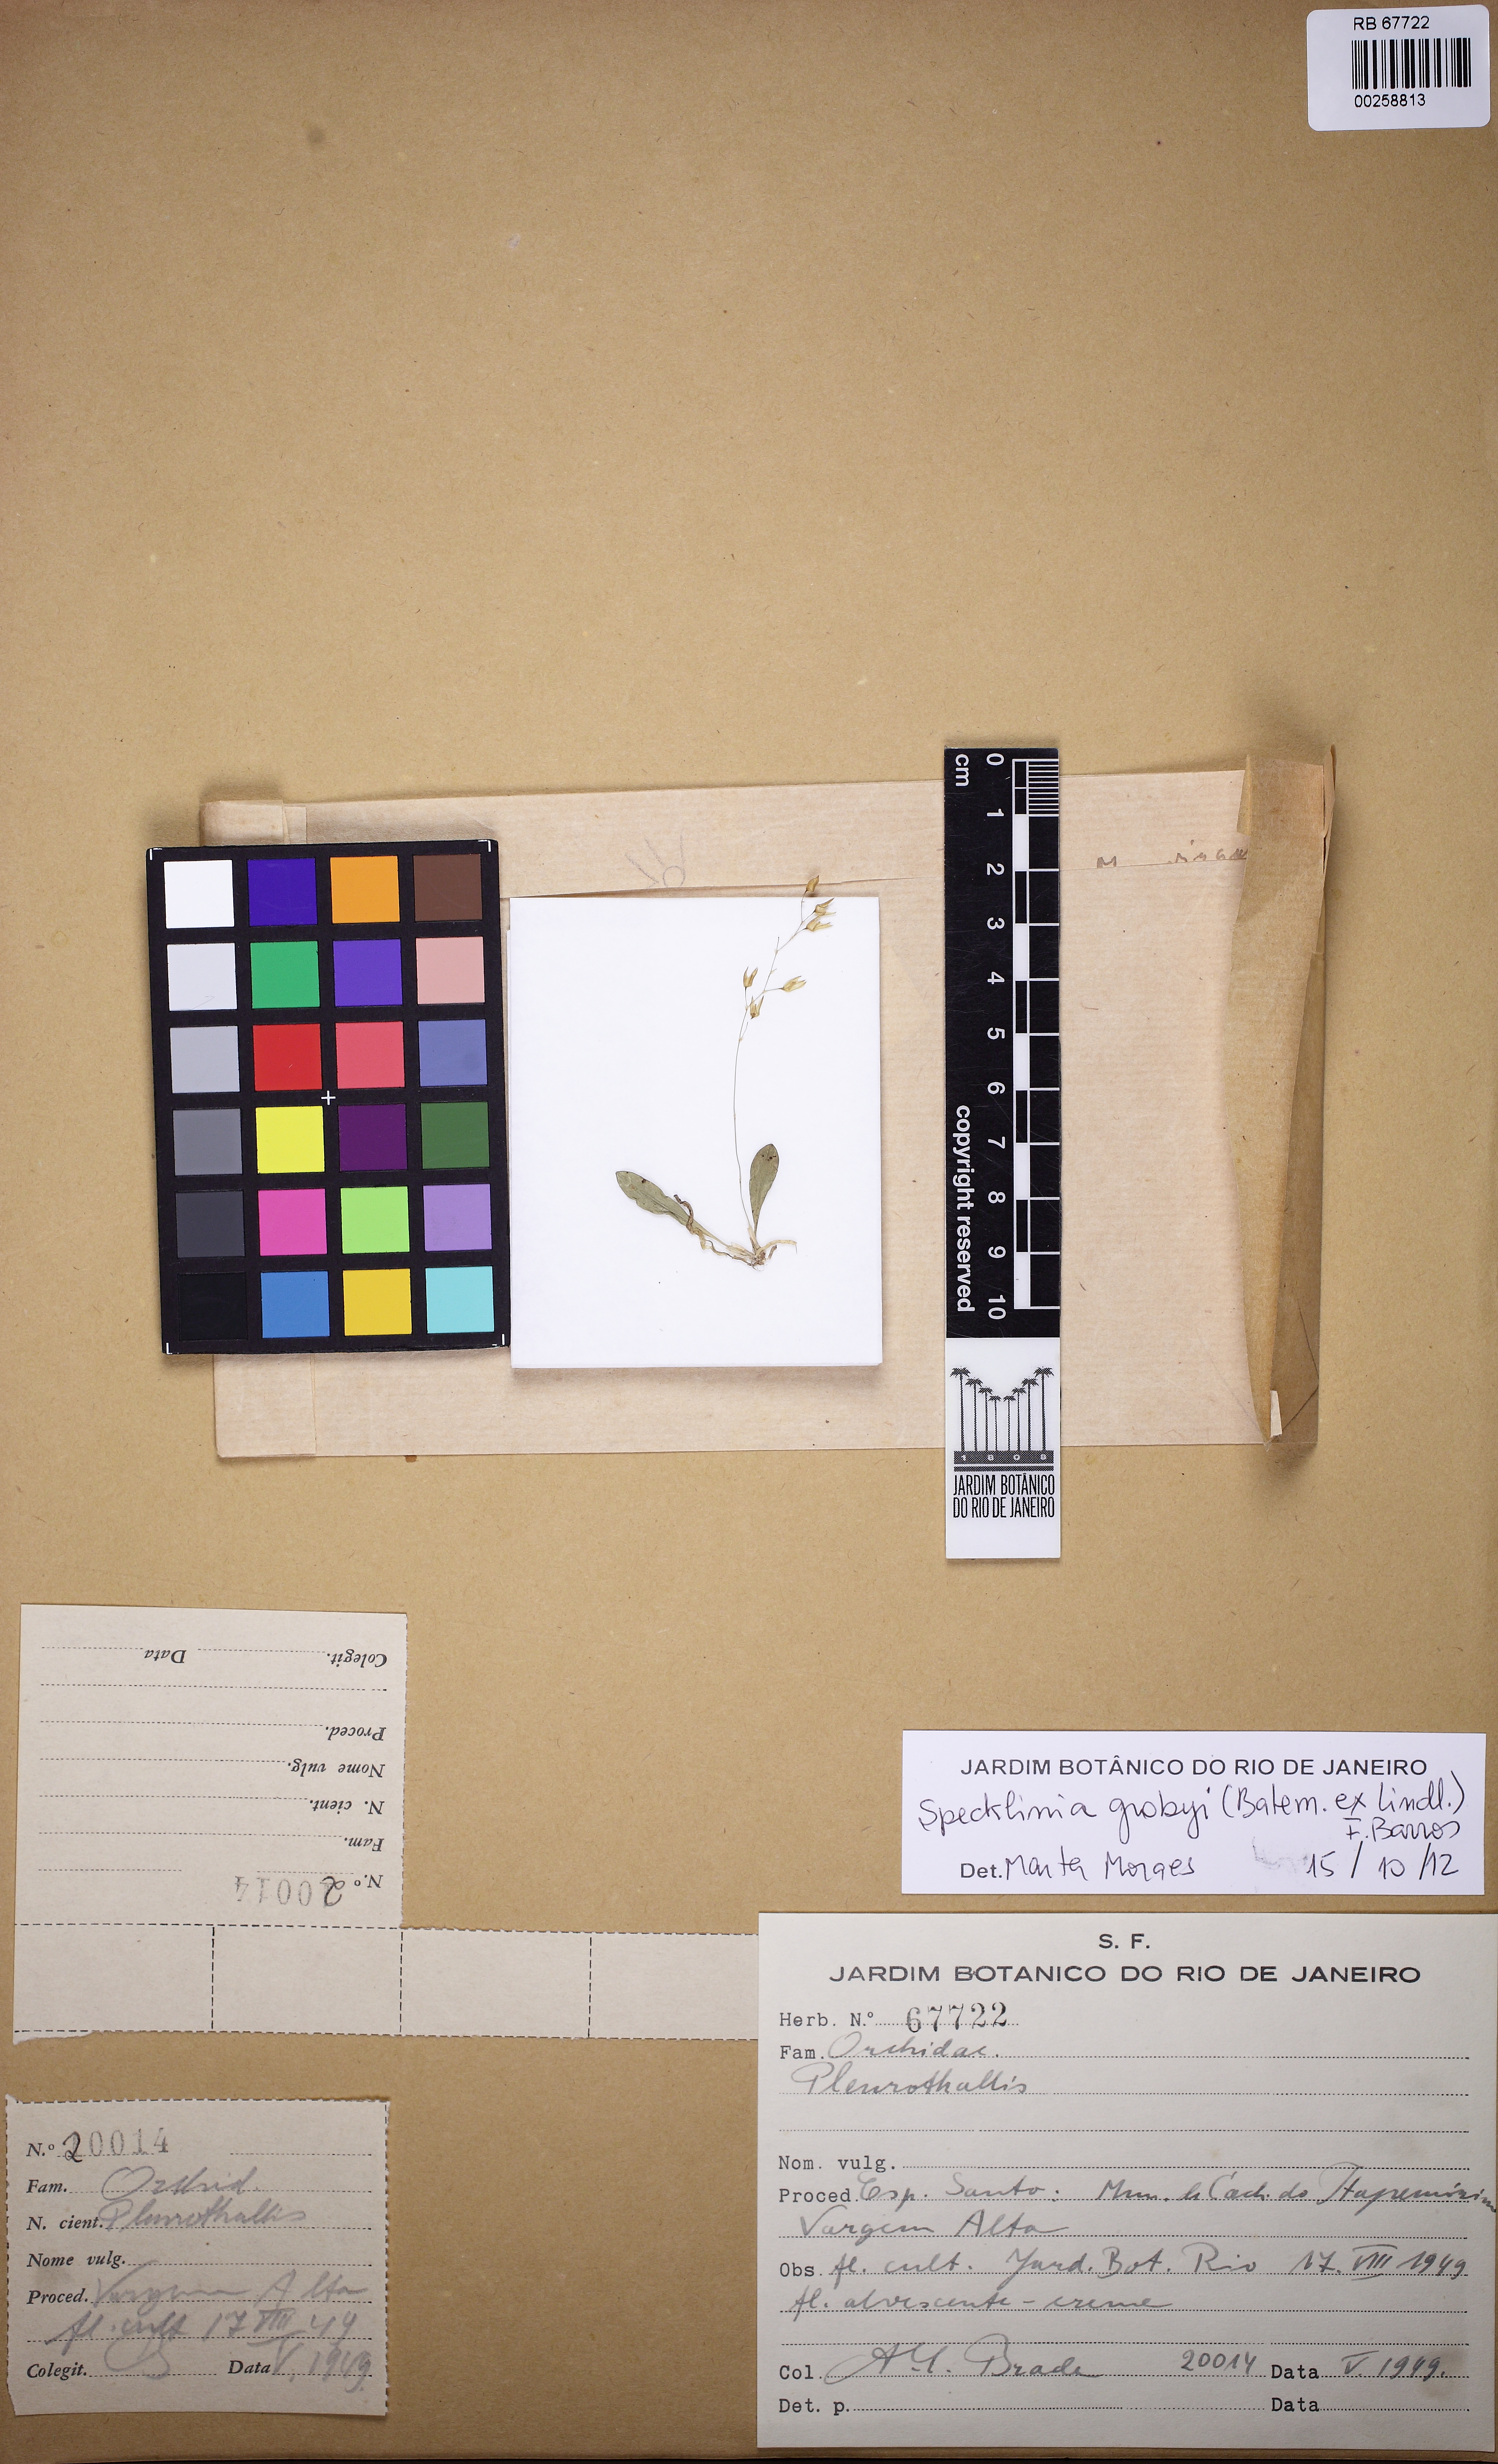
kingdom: Plantae
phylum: Tracheophyta
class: Liliopsida
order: Asparagales
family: Orchidaceae
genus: Specklinia
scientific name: Specklinia grobyi
